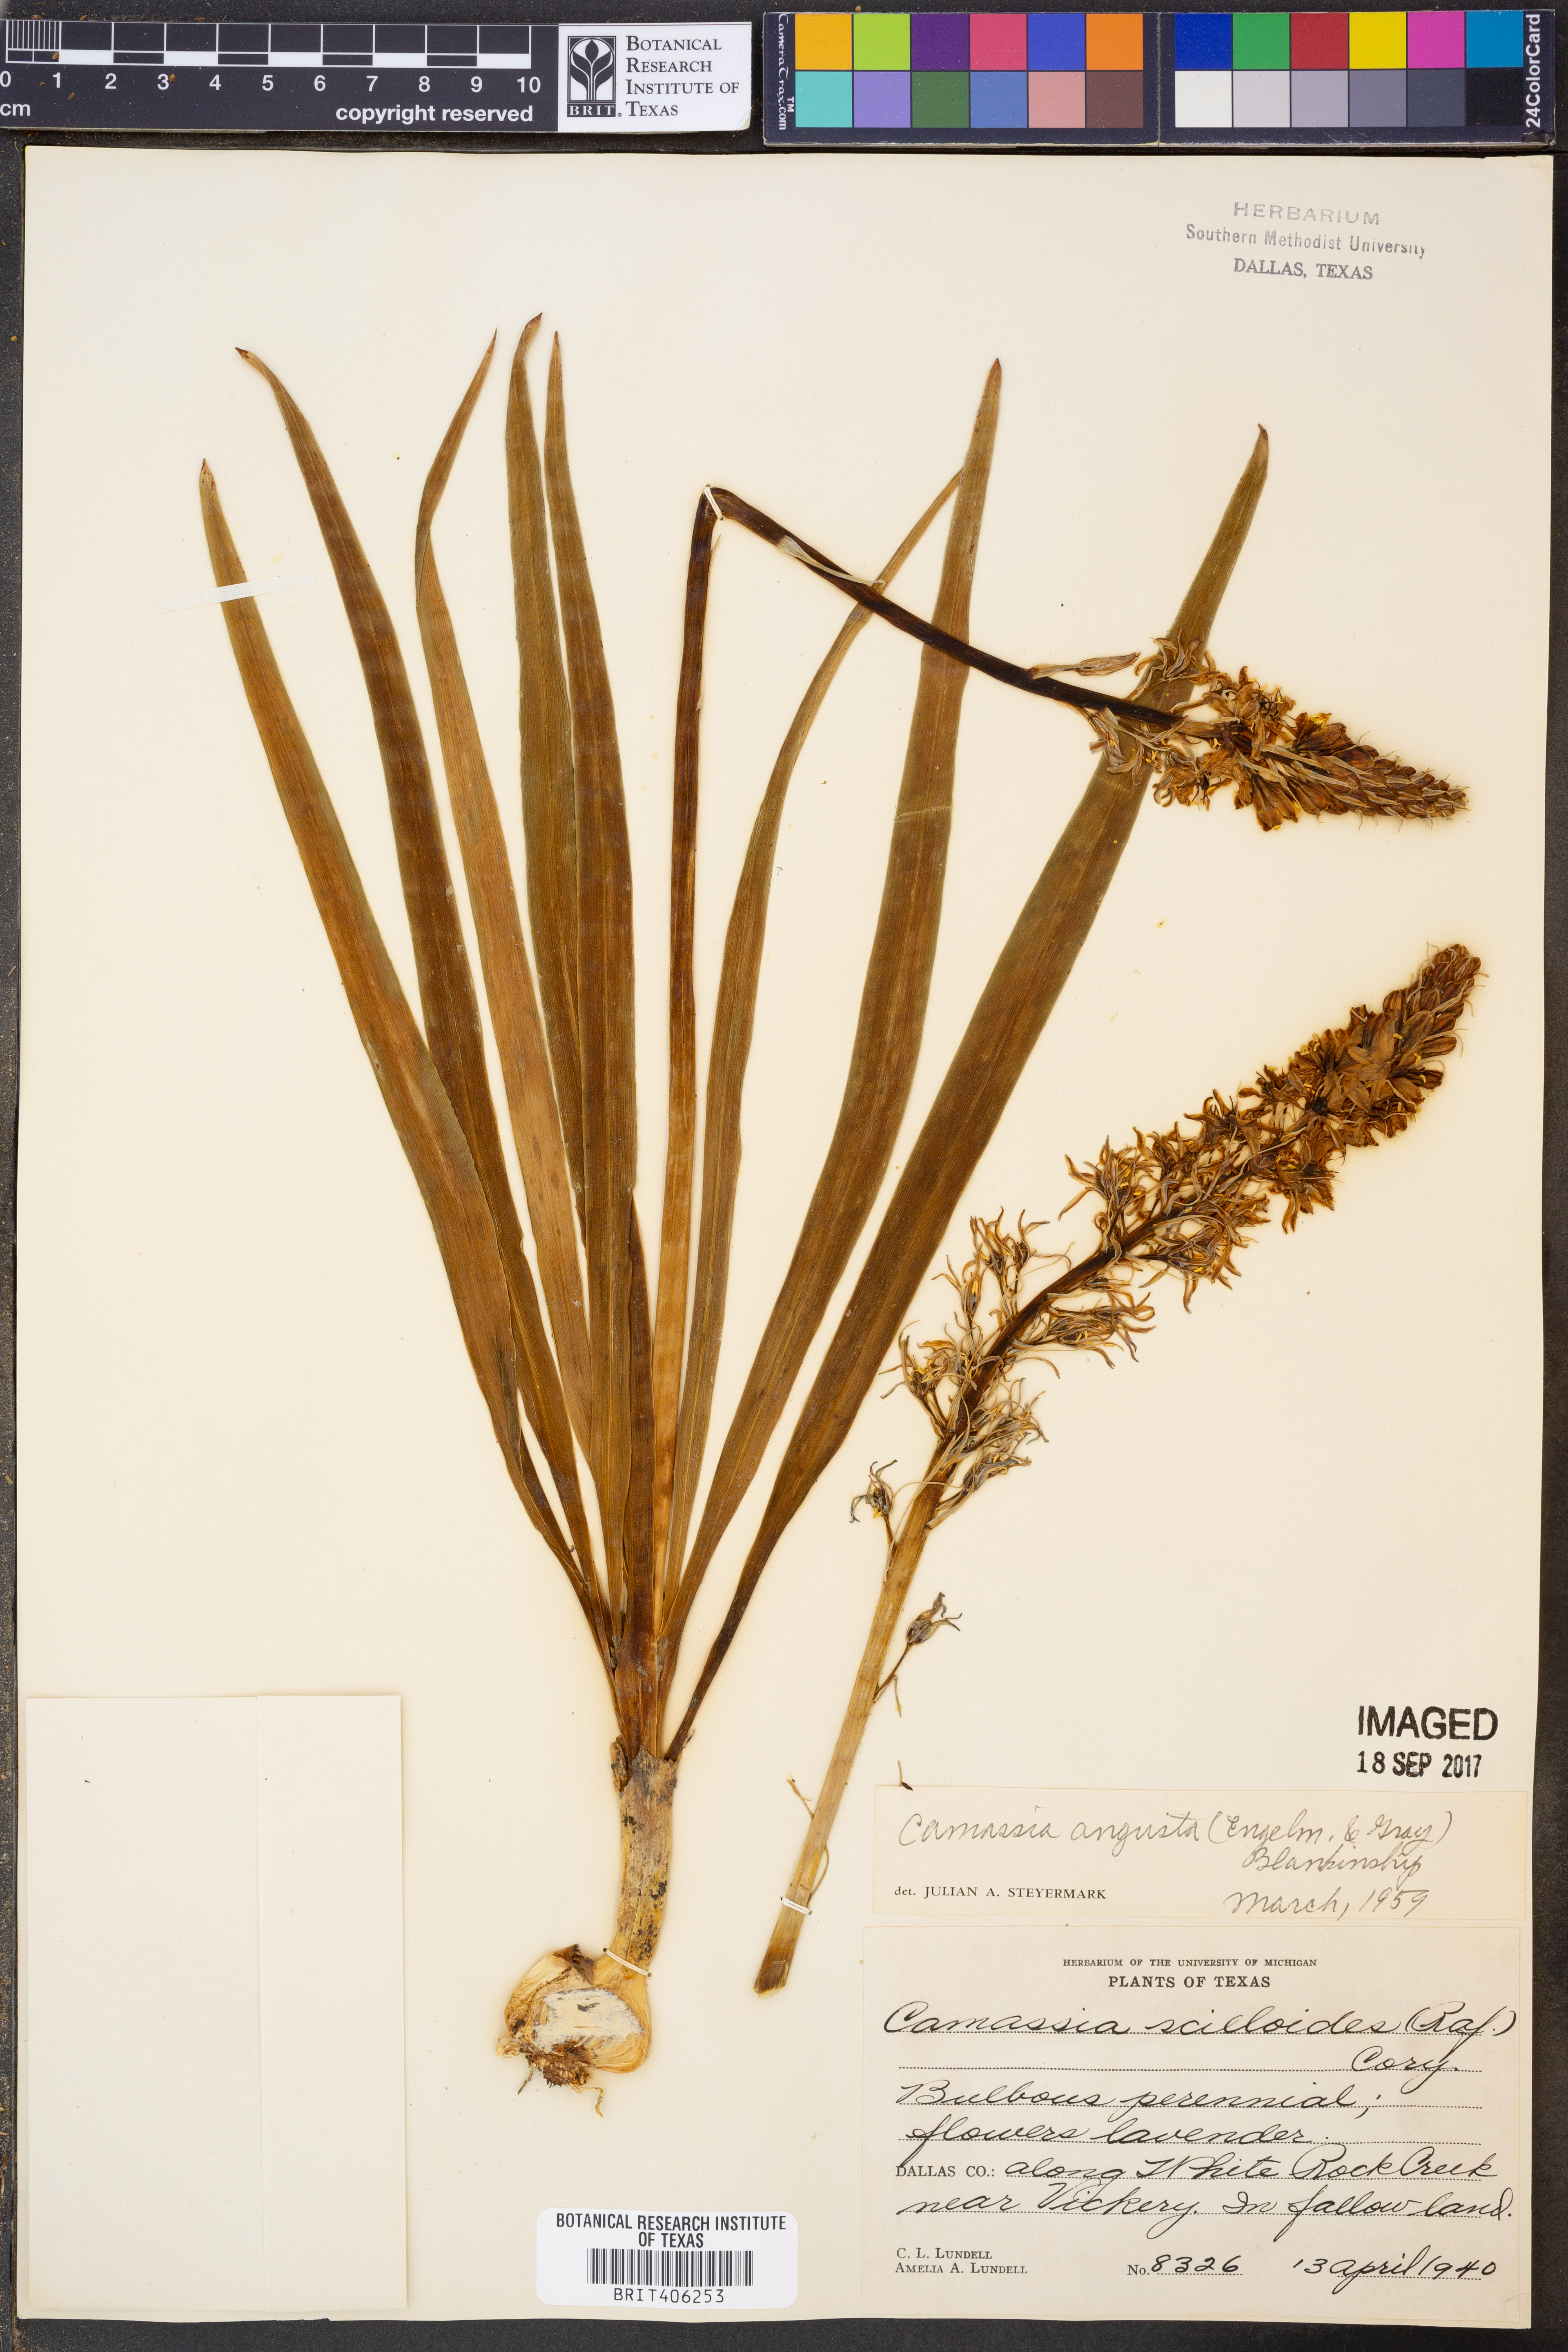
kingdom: Plantae
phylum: Tracheophyta
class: Liliopsida
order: Asparagales
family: Asparagaceae
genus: Camassia
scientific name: Camassia angusta
